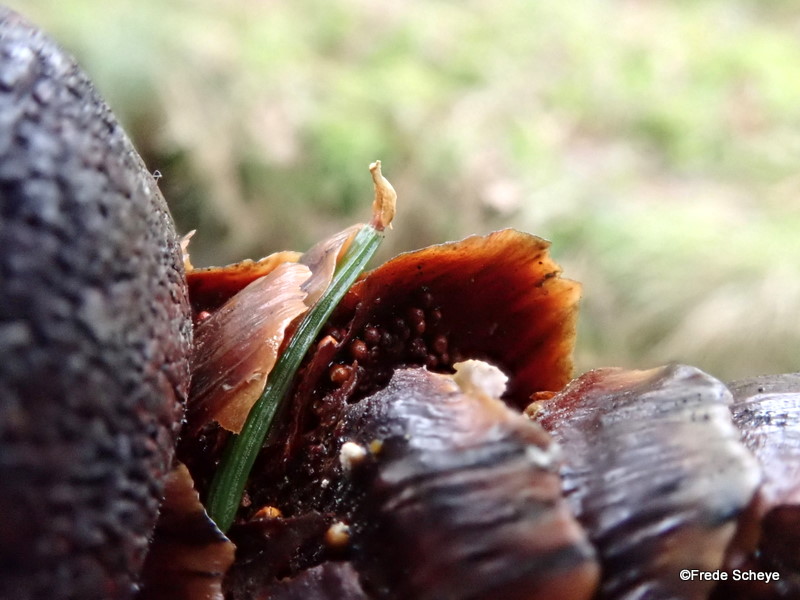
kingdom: Fungi
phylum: Basidiomycota
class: Pucciniomycetes
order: Pucciniales
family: Pucciniastraceae
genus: Thekopsora
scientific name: Thekopsora areolata
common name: grankogle-nålerust
